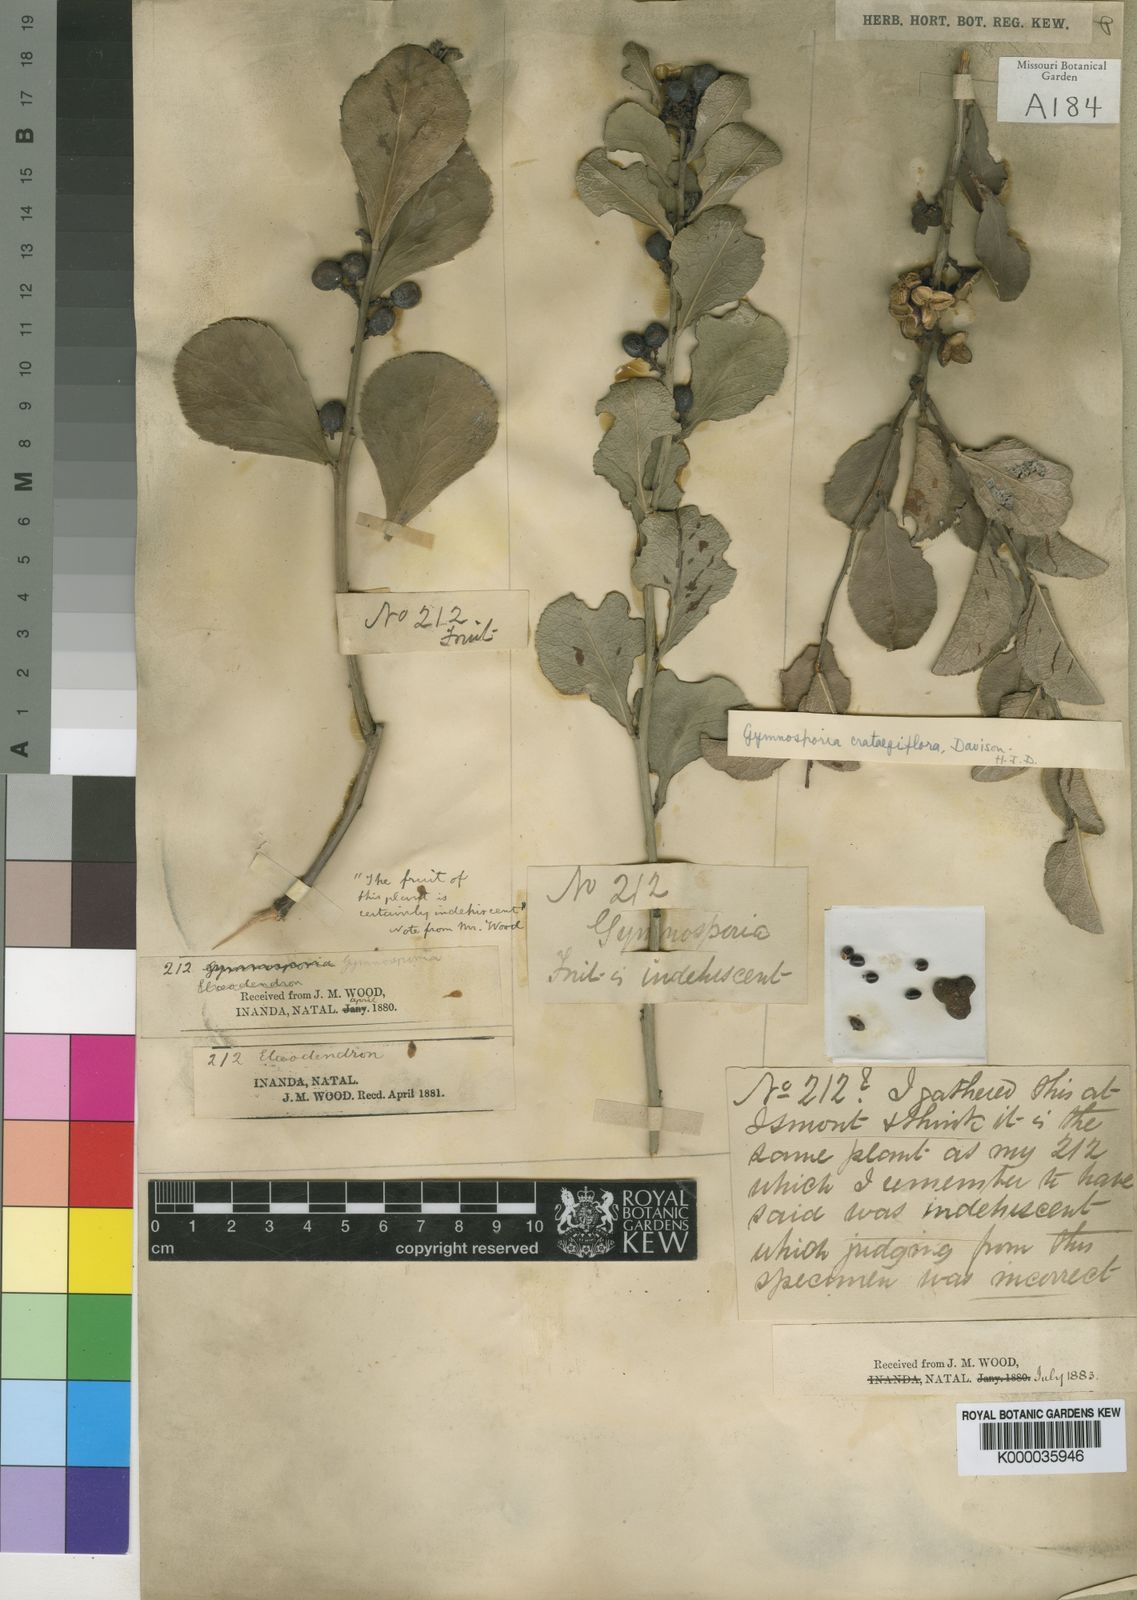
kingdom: Plantae
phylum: Tracheophyta
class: Magnoliopsida
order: Celastrales
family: Celastraceae
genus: Maytenus
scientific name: Maytenus
